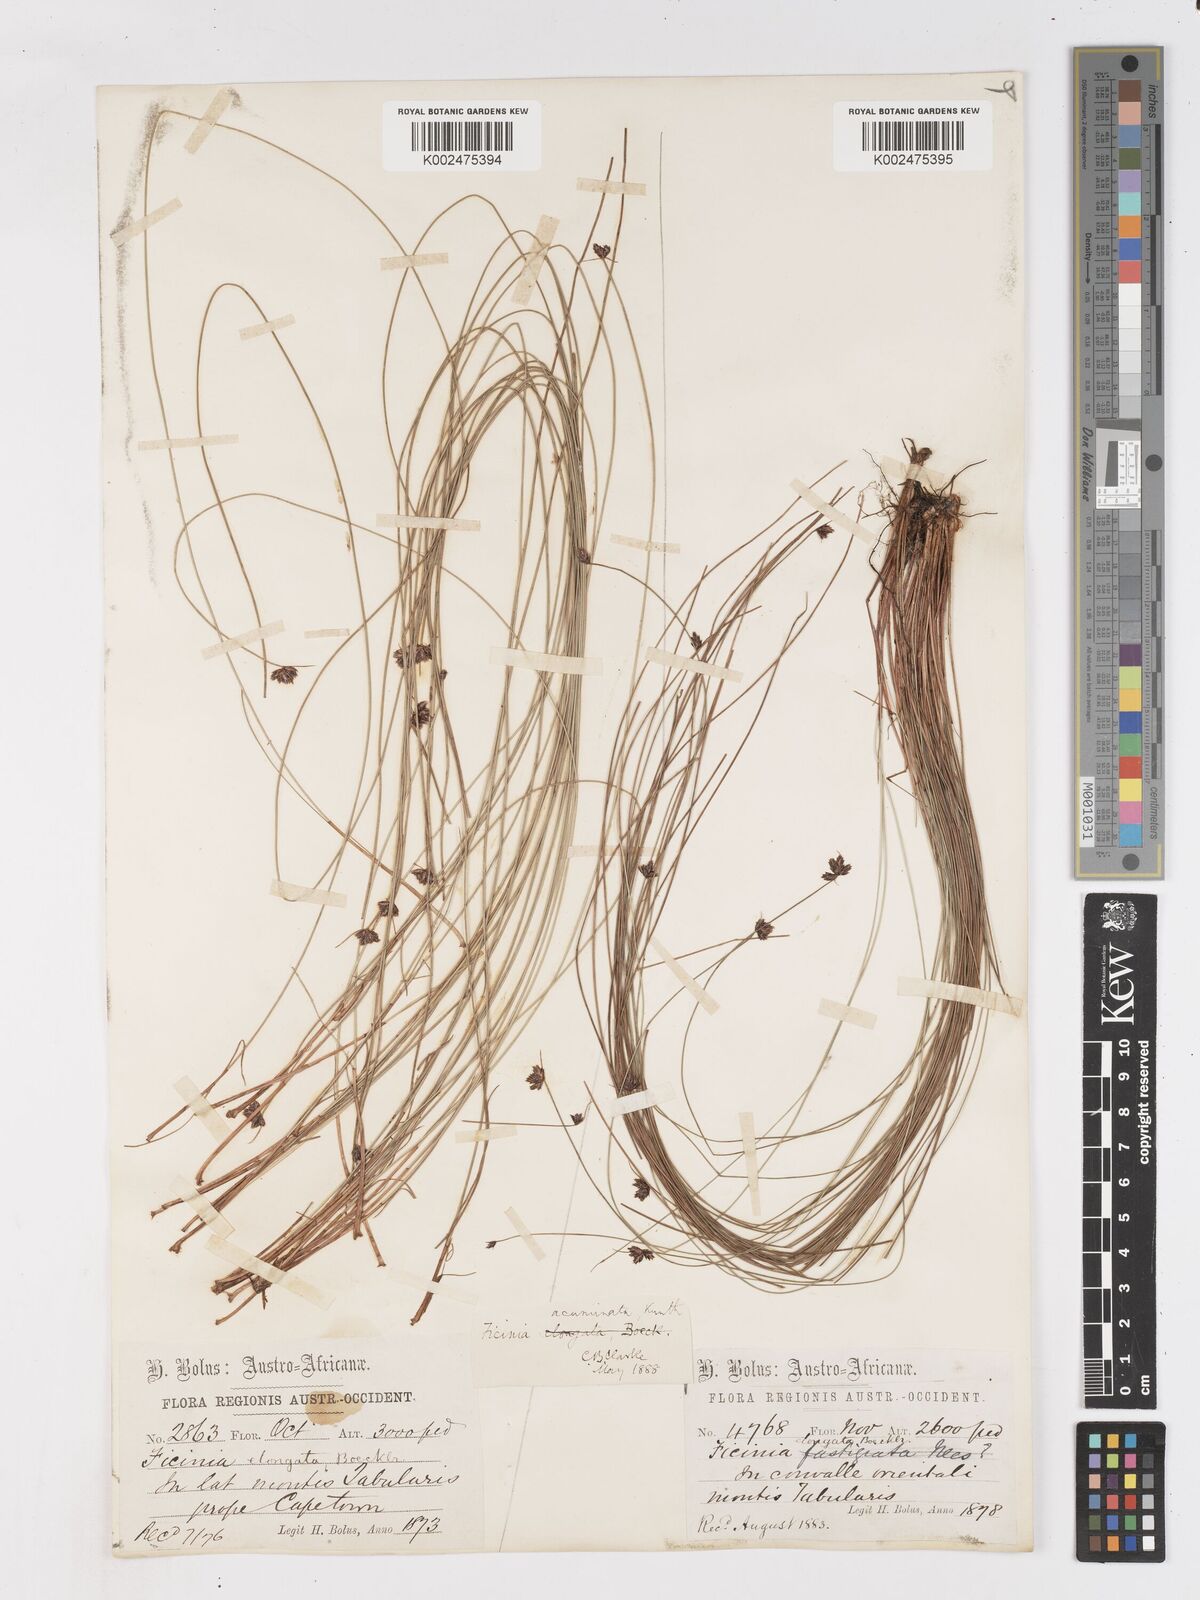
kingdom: Plantae
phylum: Tracheophyta
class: Liliopsida
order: Poales
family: Cyperaceae
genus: Ficinia
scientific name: Ficinia acuminata
